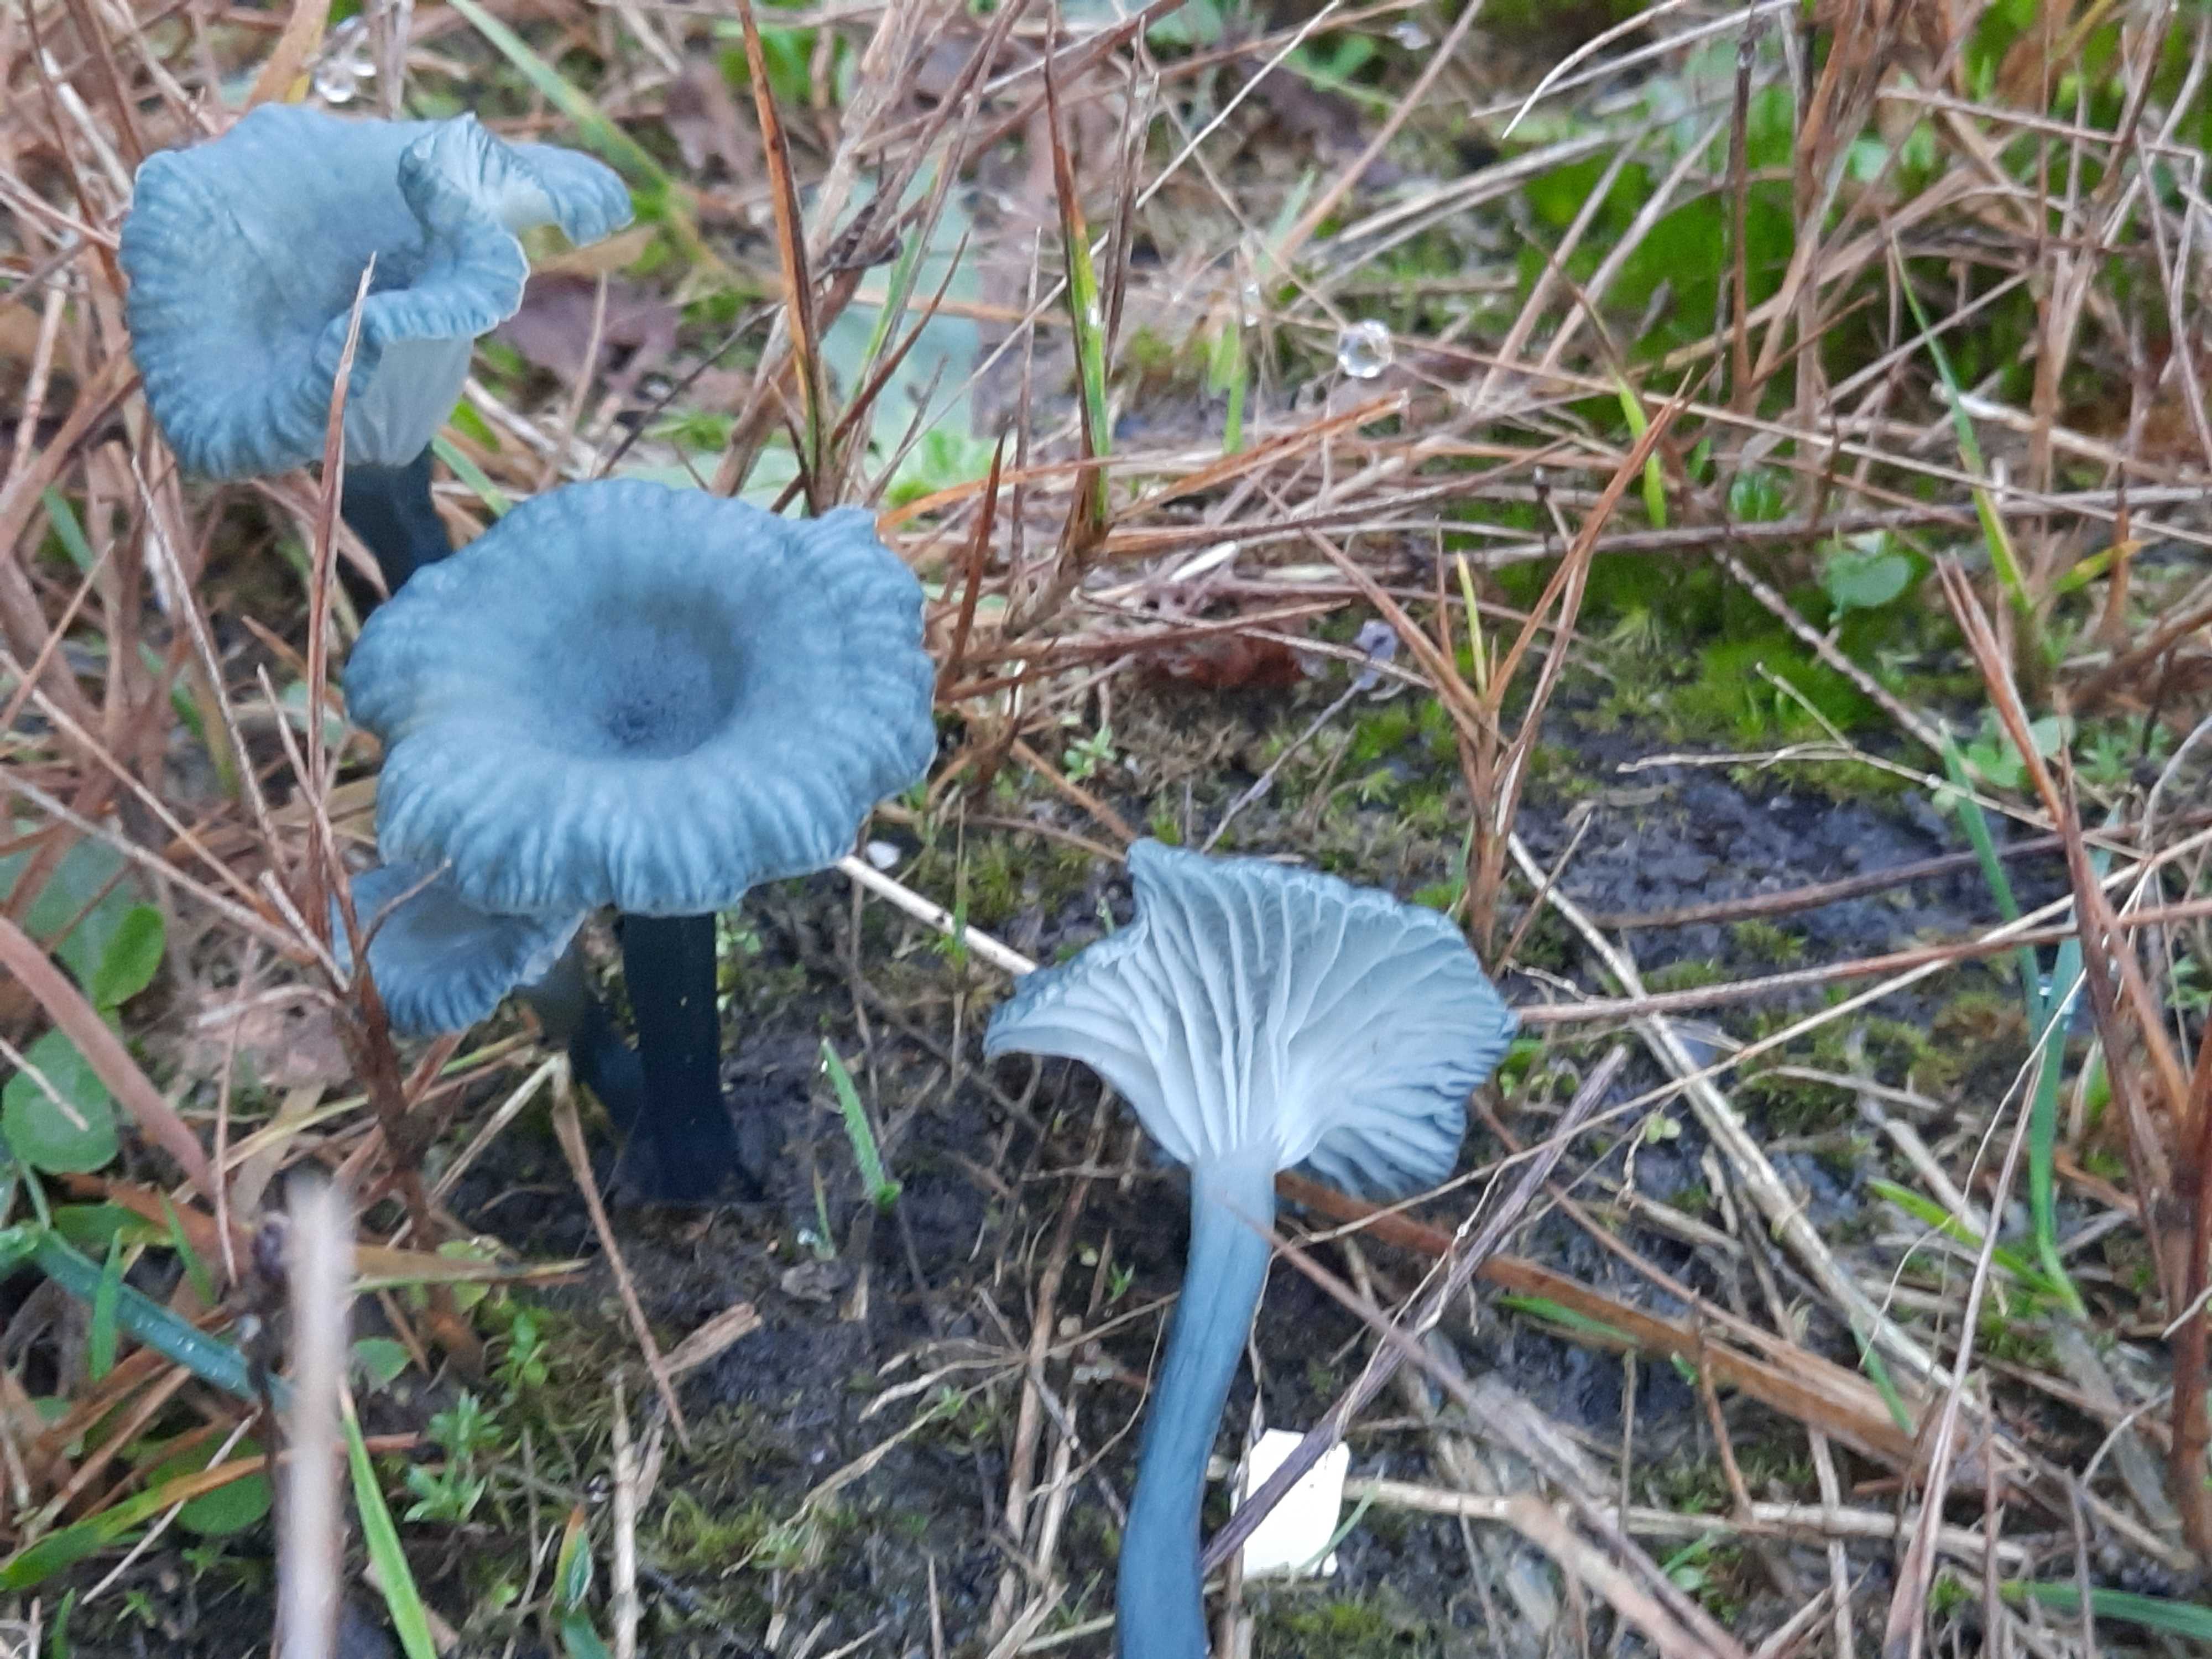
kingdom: Fungi
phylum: Basidiomycota
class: Agaricomycetes
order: Agaricales
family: Hygrophoraceae
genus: Arrhenia
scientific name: Arrhenia chlorocyanea
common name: blågrøn fontænehat
